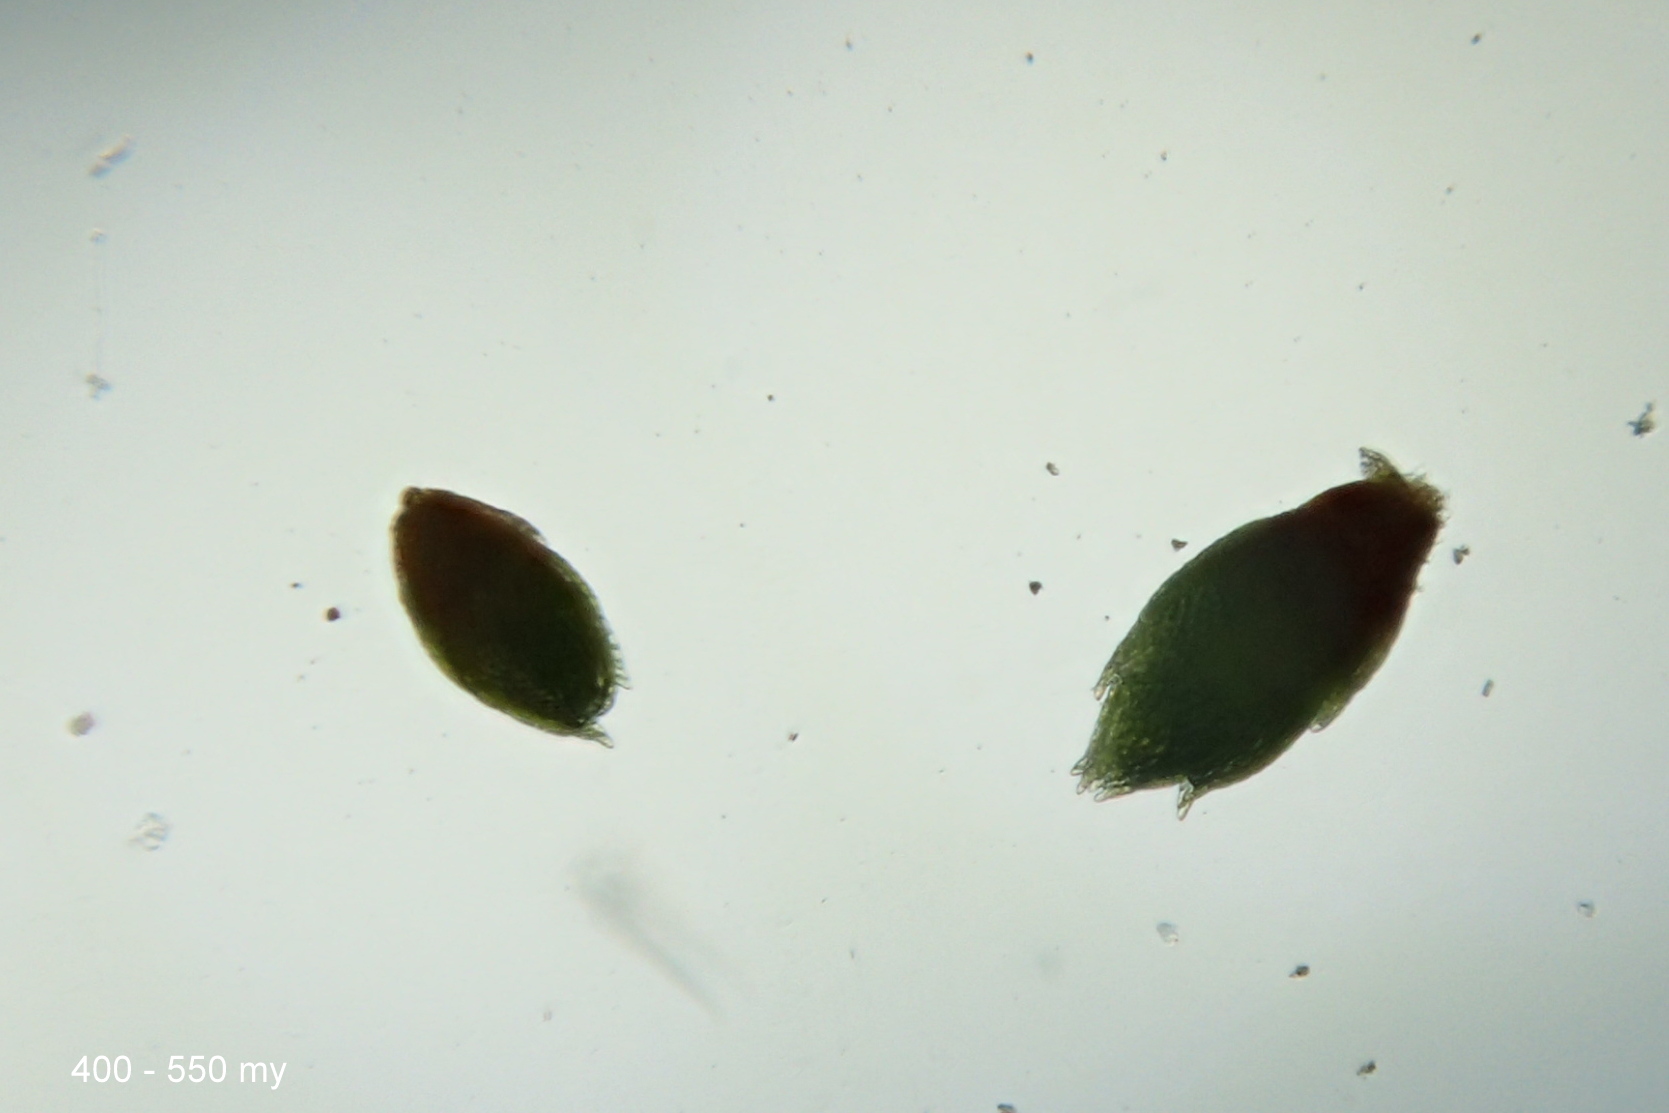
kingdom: Plantae
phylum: Bryophyta
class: Bryopsida
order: Bryales
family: Bryaceae
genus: Gemmabryum
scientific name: Gemmabryum dichotomum
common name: Dværg-bryum
